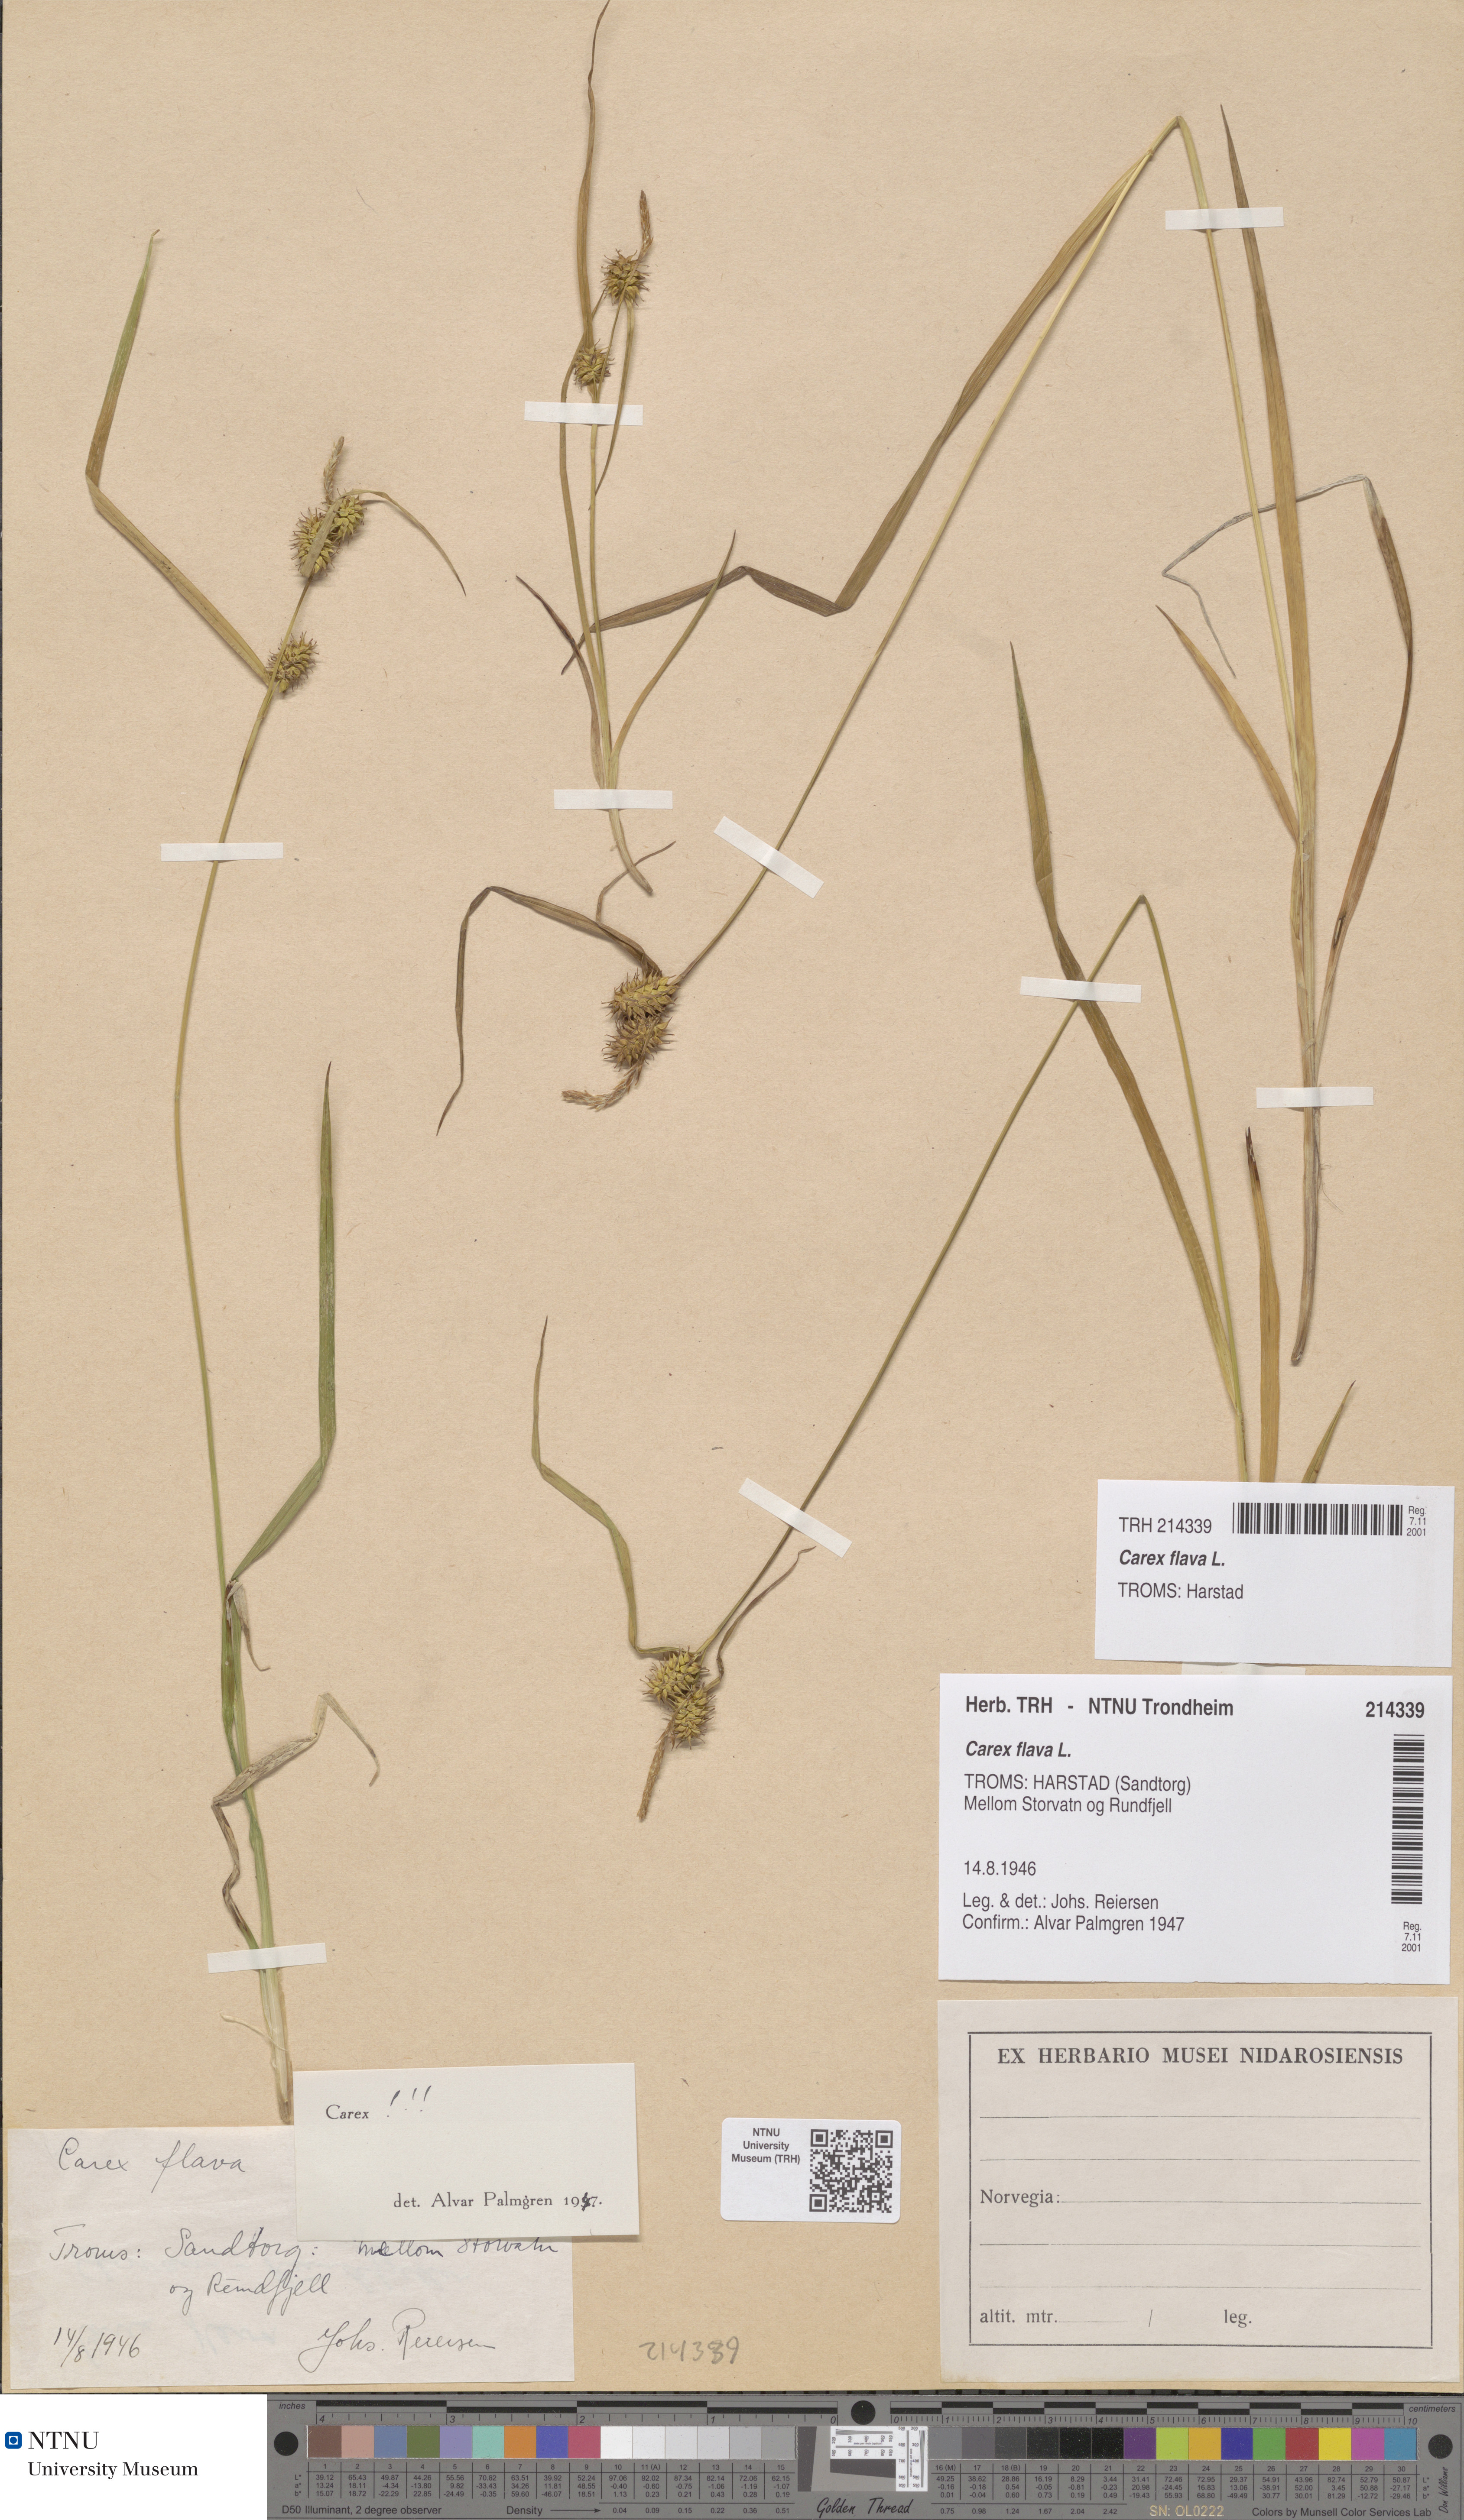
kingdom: Plantae
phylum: Tracheophyta
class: Liliopsida
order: Poales
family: Cyperaceae
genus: Carex
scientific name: Carex flava
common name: Large yellow-sedge
